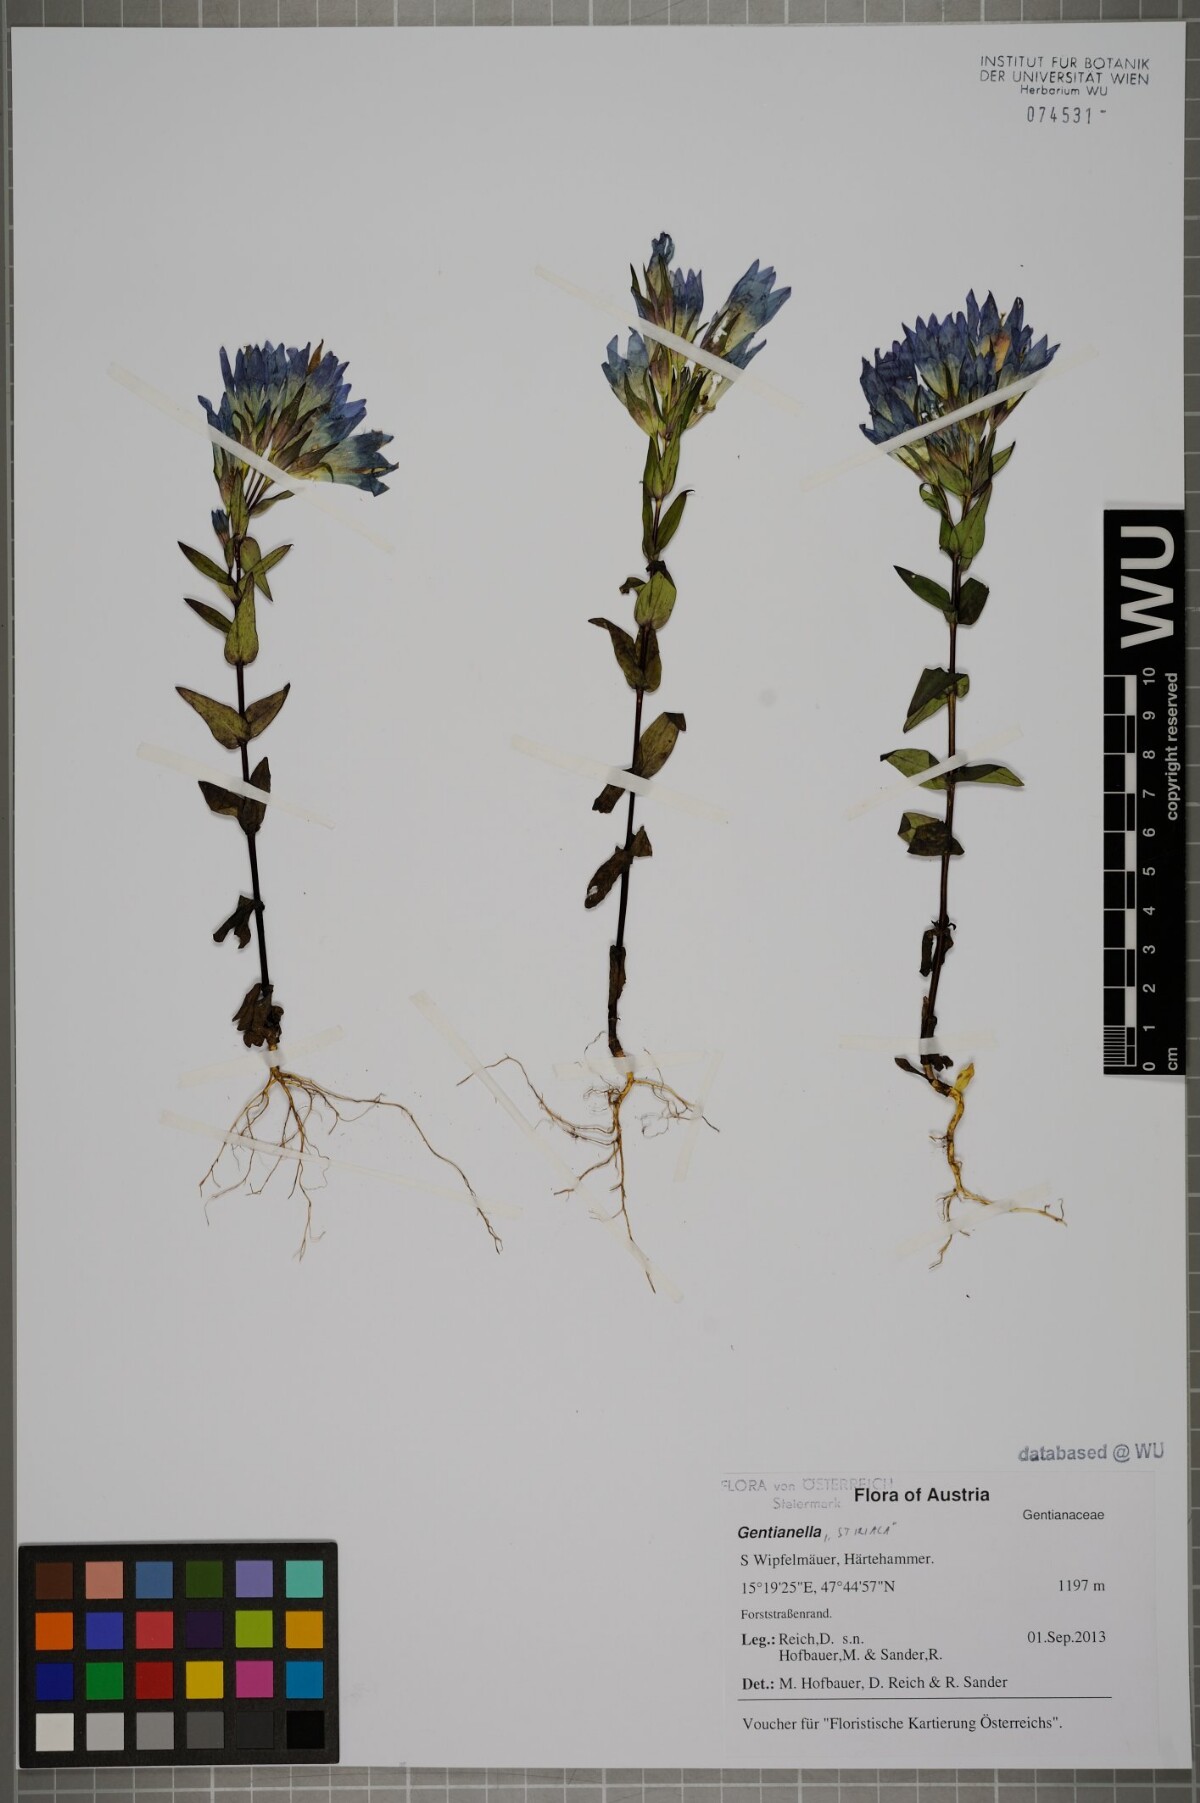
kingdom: Plantae
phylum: Tracheophyta
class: Magnoliopsida
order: Gentianales
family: Gentianaceae
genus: Gentianella
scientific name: Gentianella
